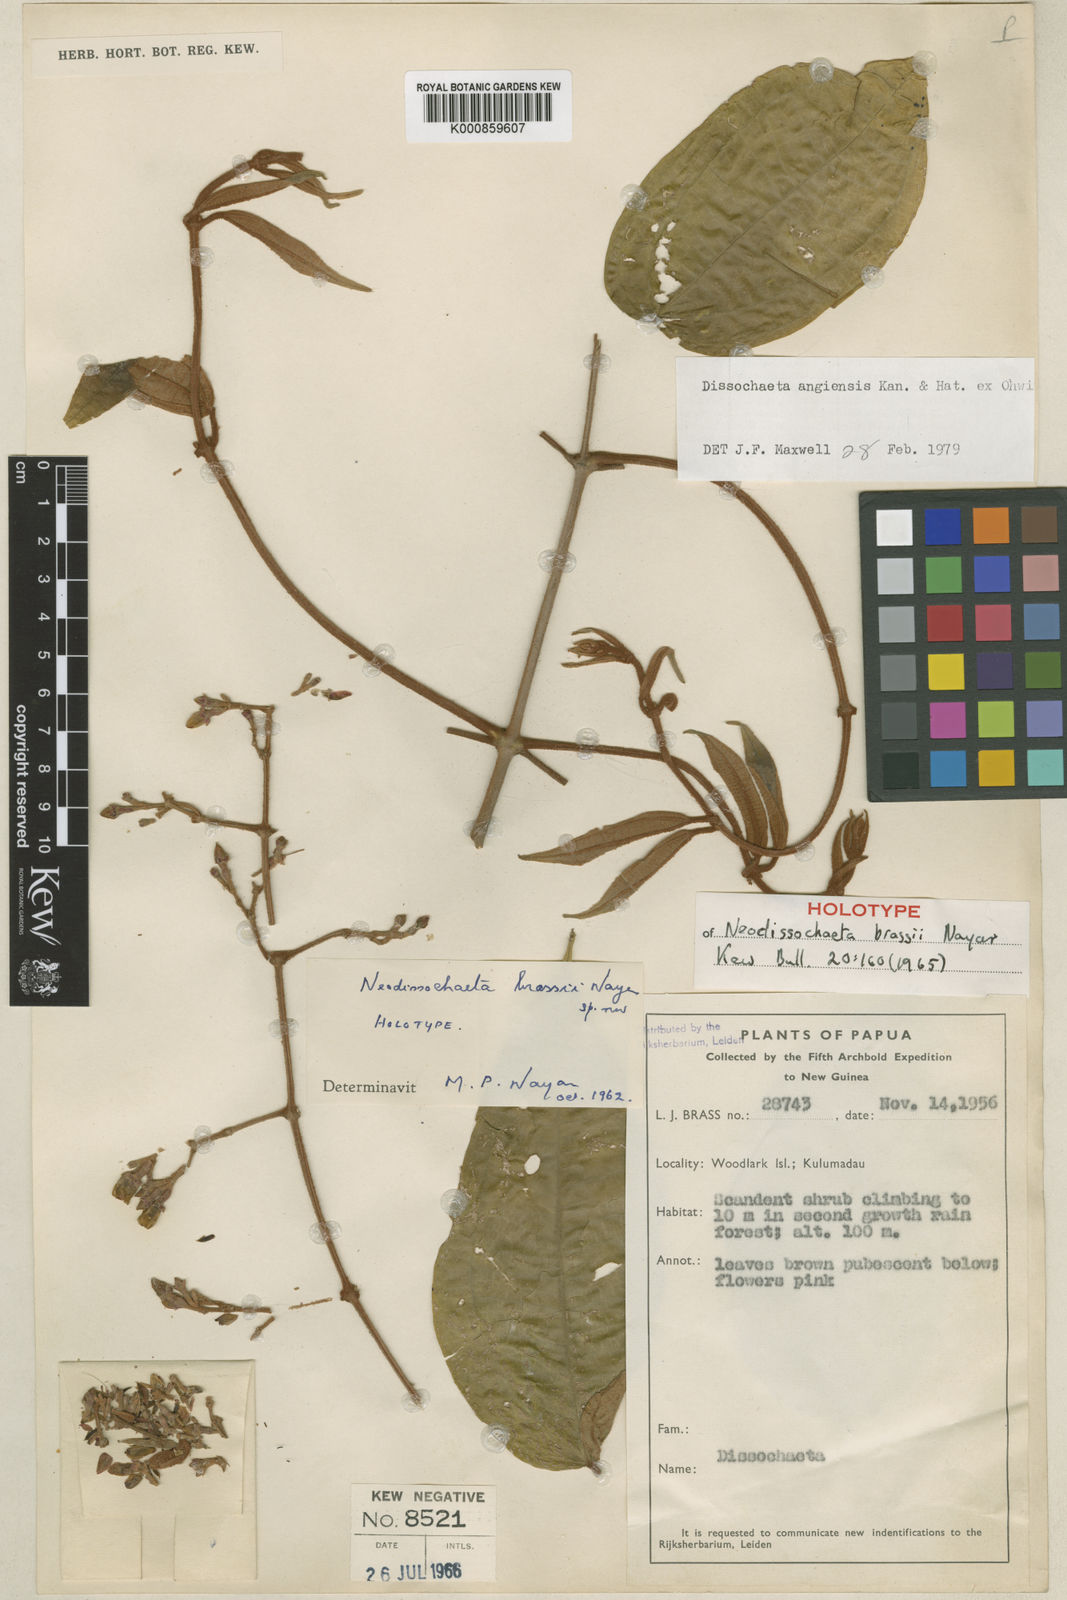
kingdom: Plantae
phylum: Tracheophyta
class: Magnoliopsida
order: Myrtales
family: Melastomataceae
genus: Dissochaeta
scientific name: Dissochaeta angiensis
